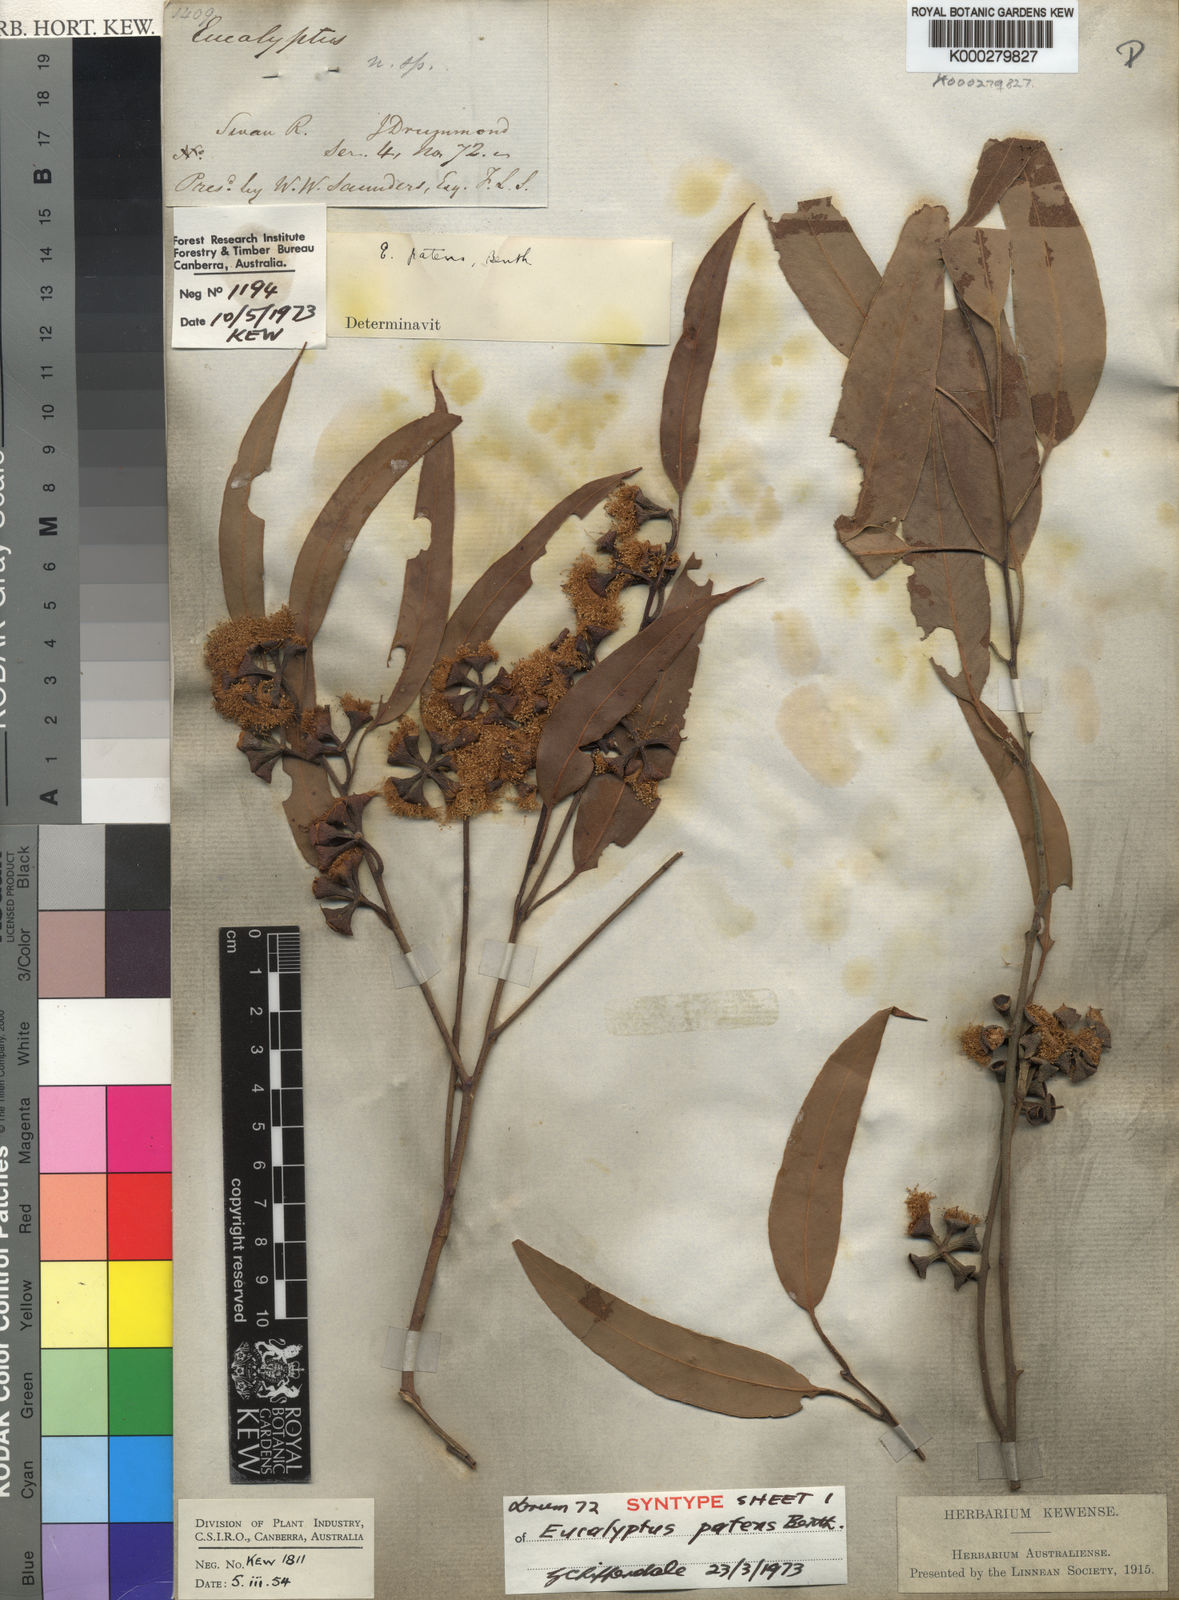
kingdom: Plantae
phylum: Tracheophyta
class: Magnoliopsida
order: Myrtales
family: Myrtaceae
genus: Eucalyptus
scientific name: Eucalyptus patens
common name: Swan river blackbutt
